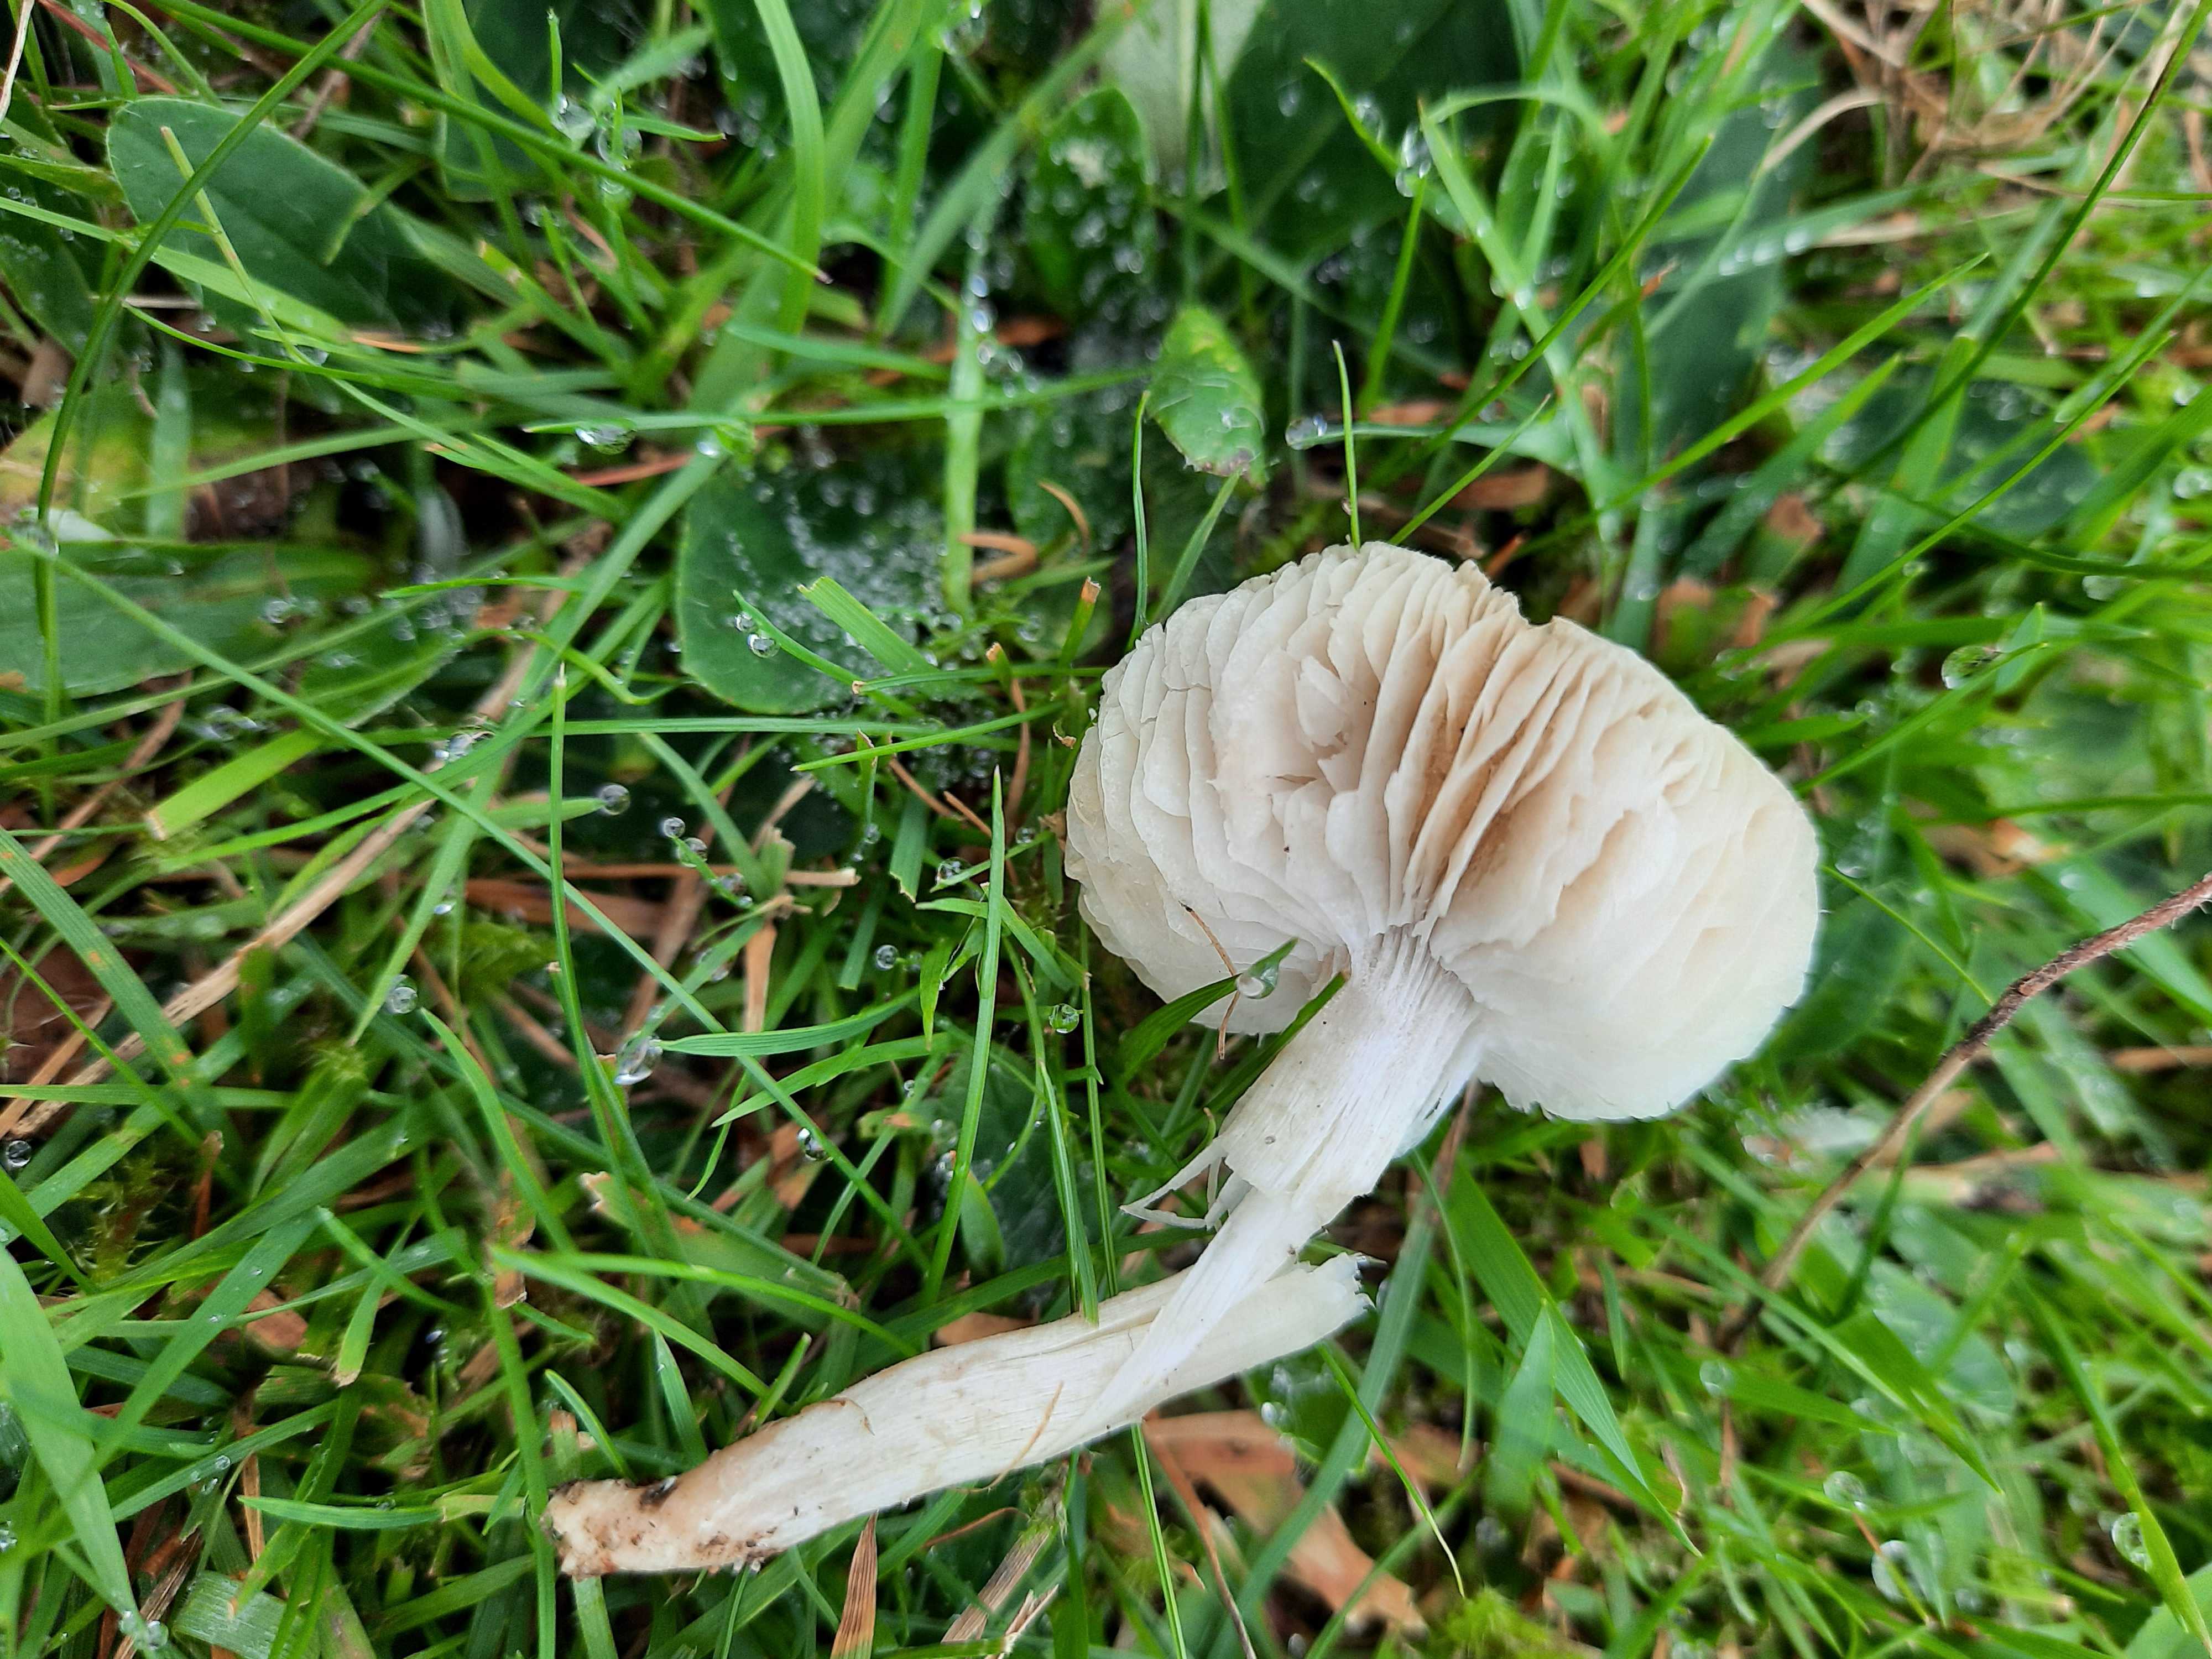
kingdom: Fungi
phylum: Basidiomycota
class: Agaricomycetes
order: Agaricales
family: Tricholomataceae
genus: Dermoloma
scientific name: Dermoloma cuneifolium
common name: eng-nonnehat
